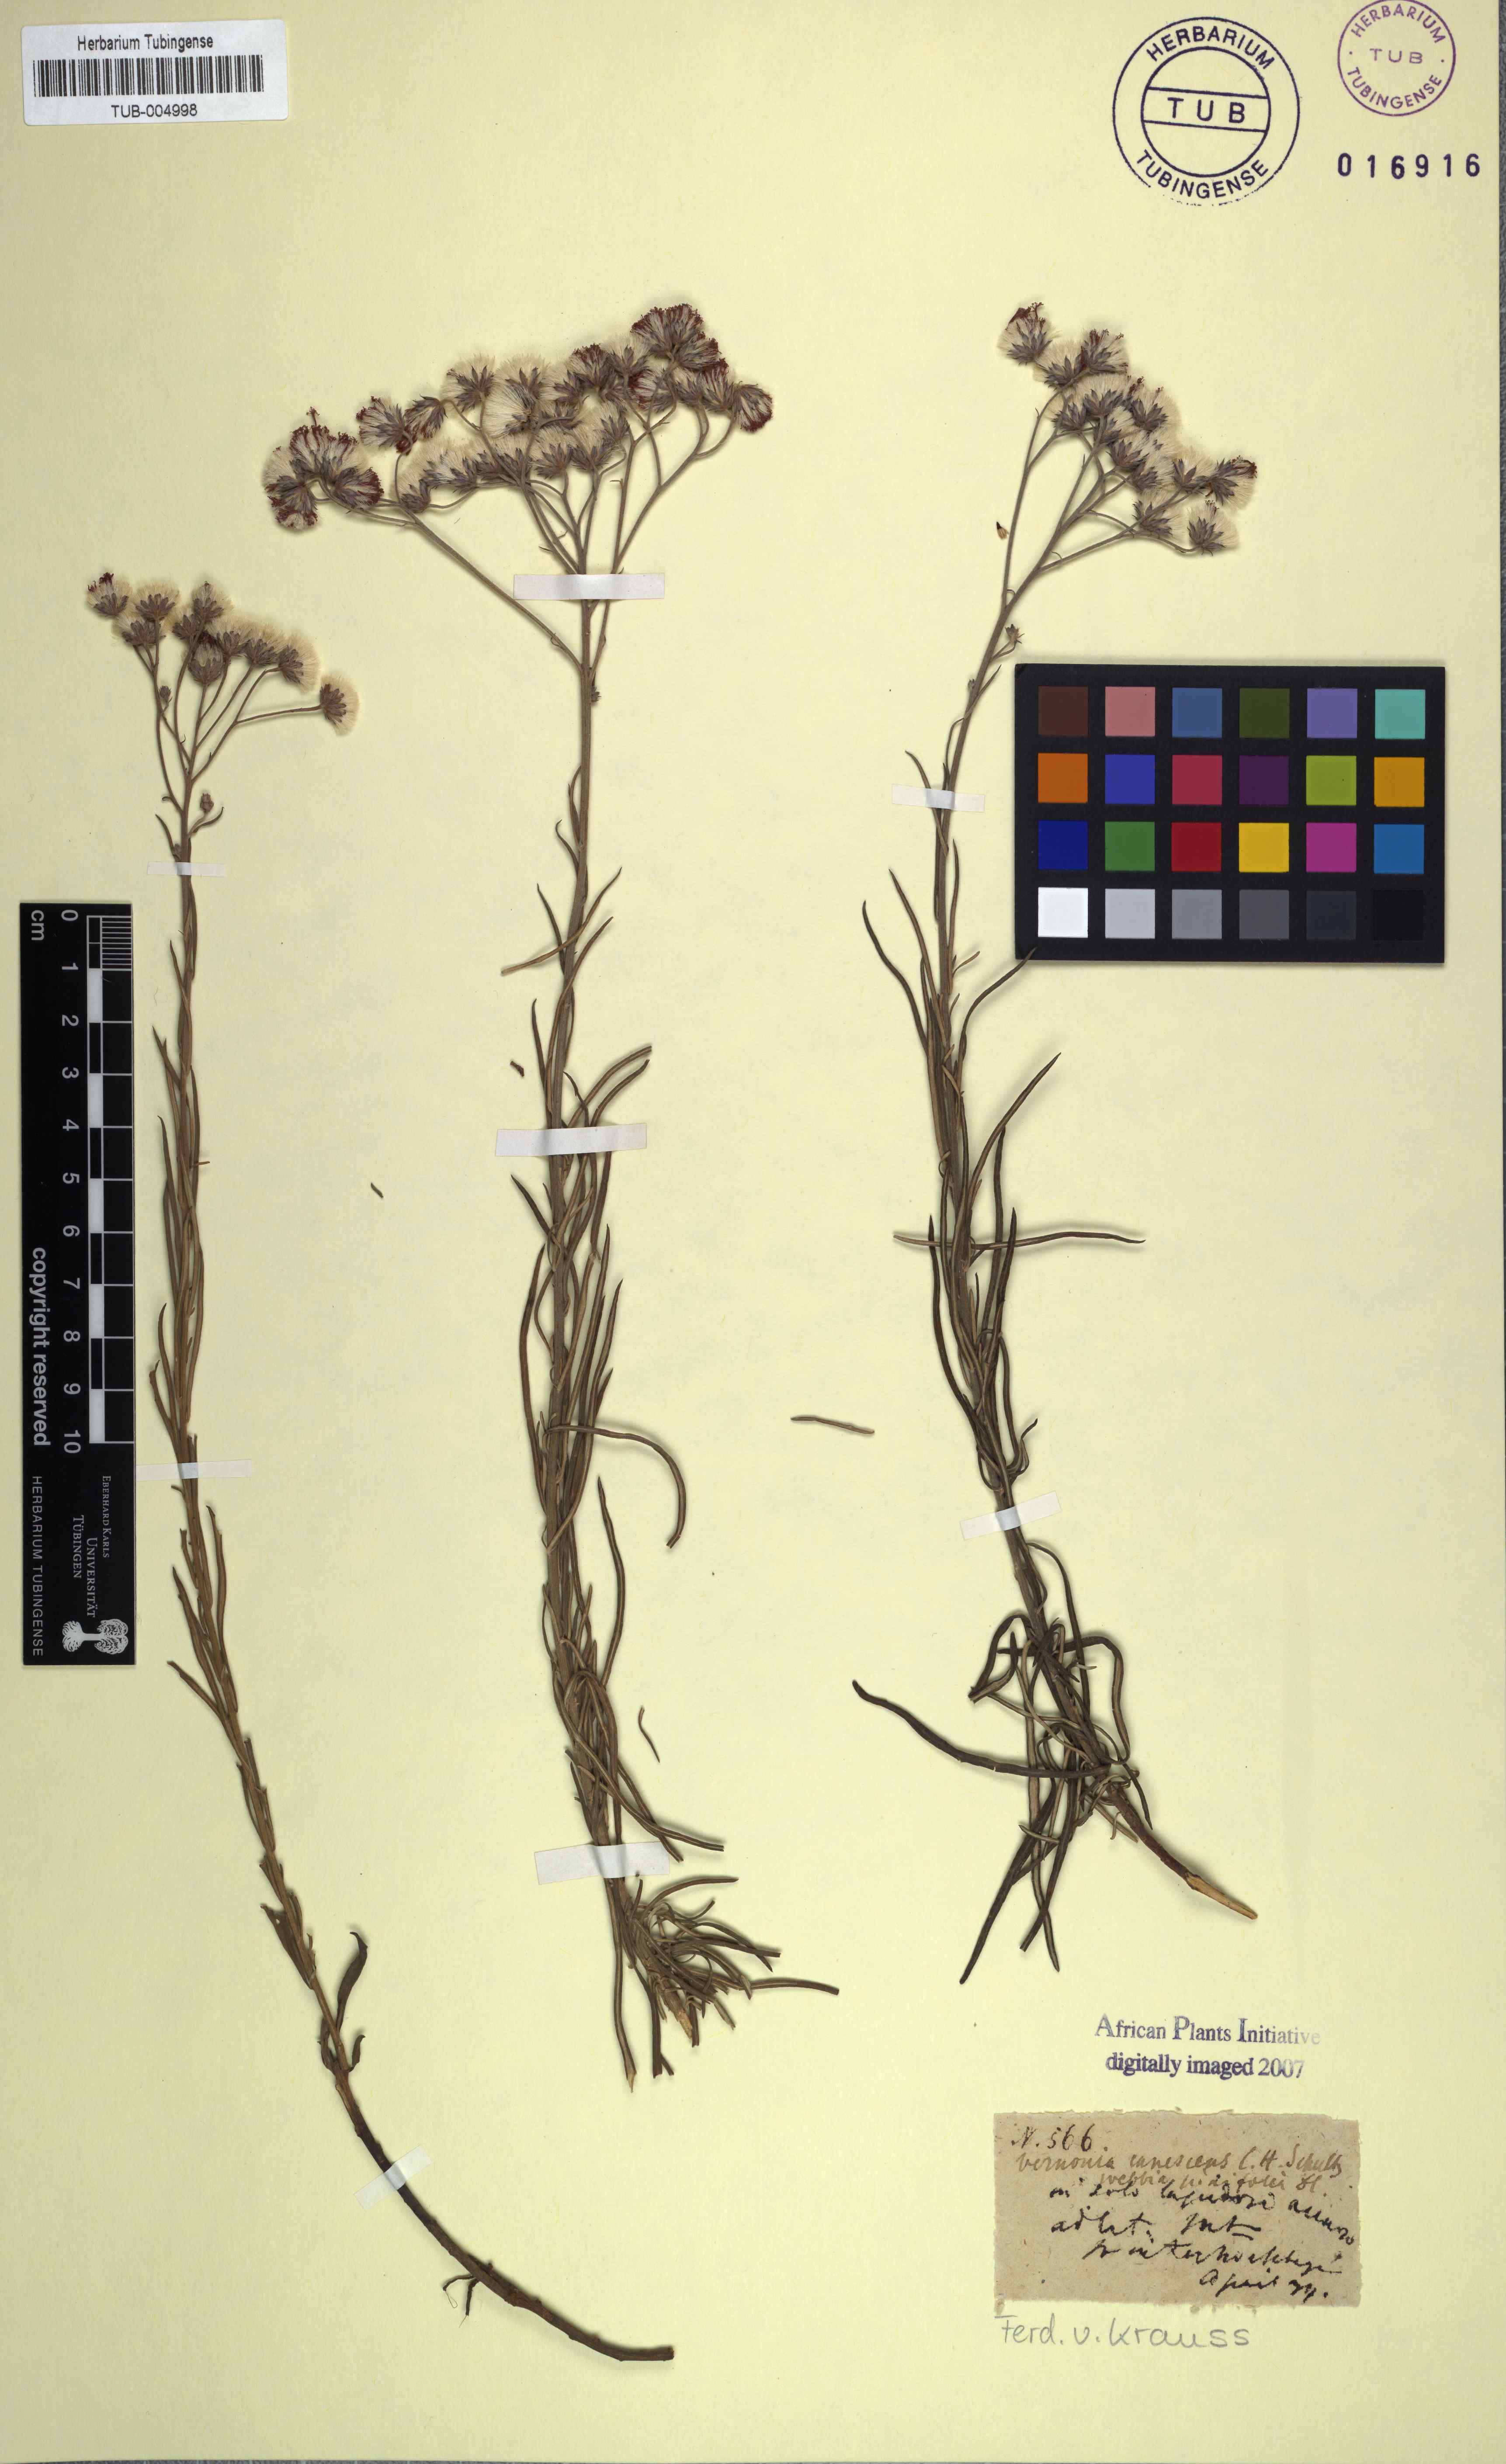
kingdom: Plantae
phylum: Tracheophyta
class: Magnoliopsida
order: Asterales
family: Asteraceae
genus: Hilliardiella
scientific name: Hilliardiella capensis
